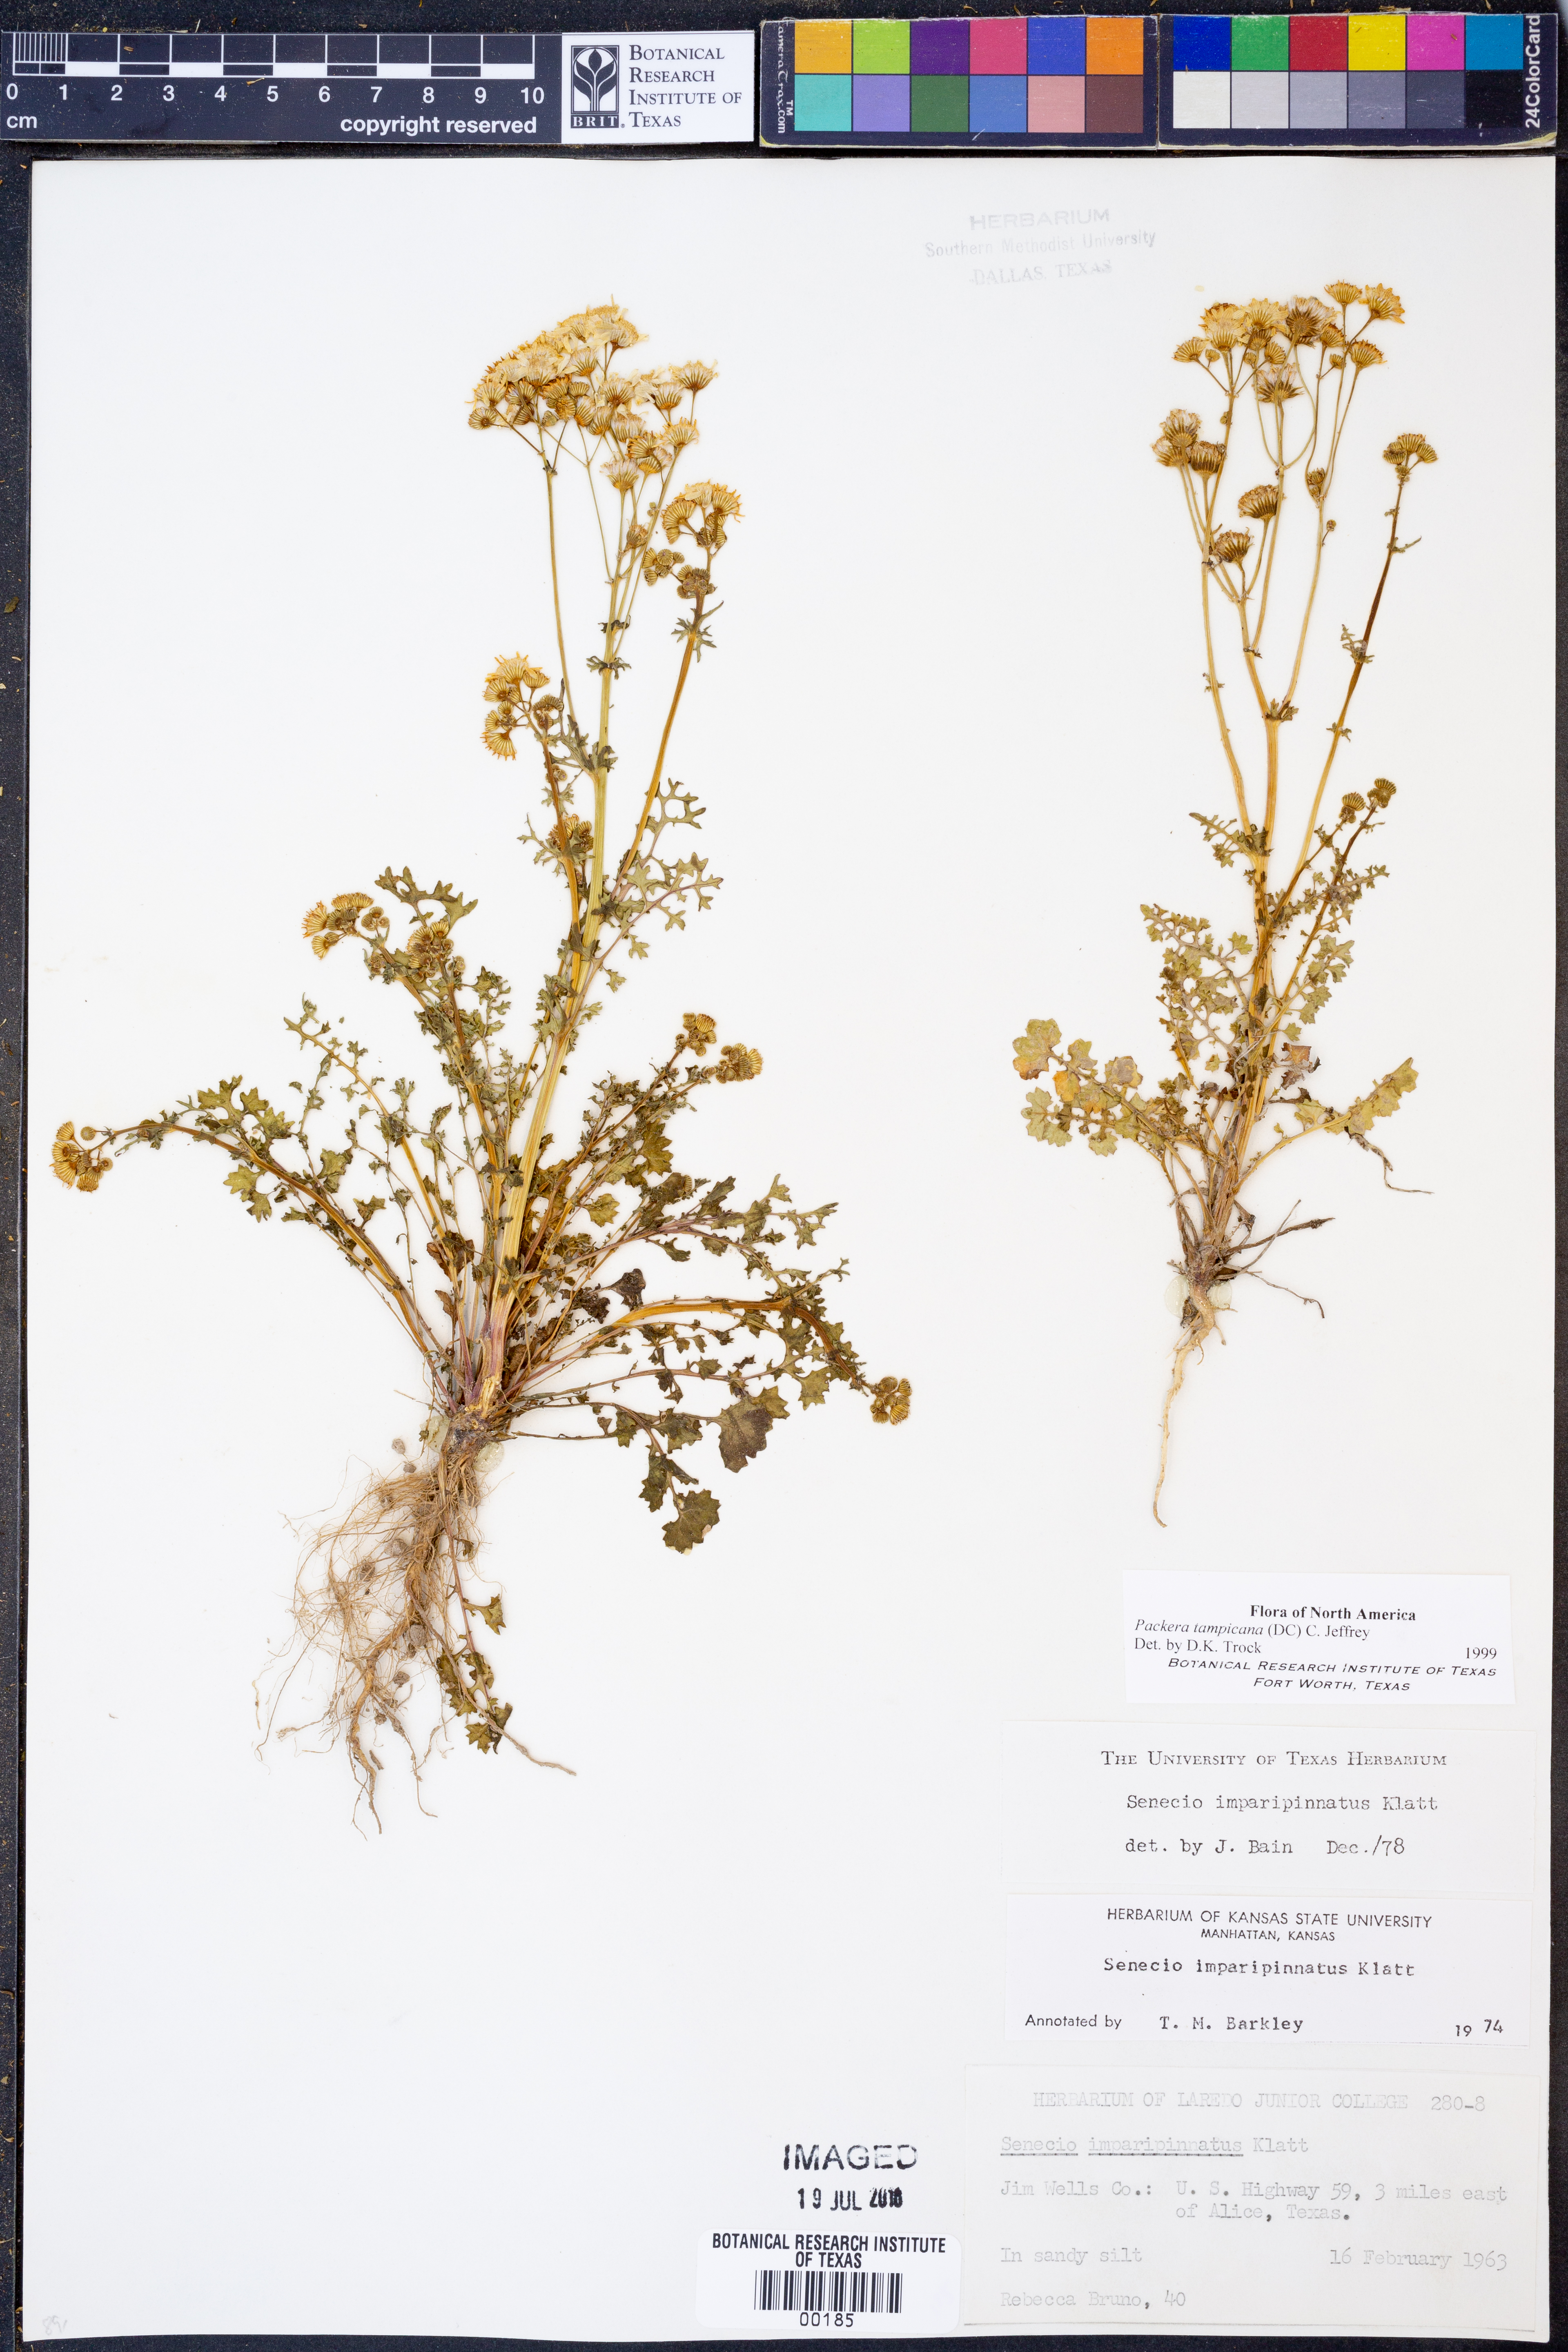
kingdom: Plantae
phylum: Tracheophyta
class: Magnoliopsida
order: Asterales
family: Asteraceae
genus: Packera
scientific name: Packera tampicana
